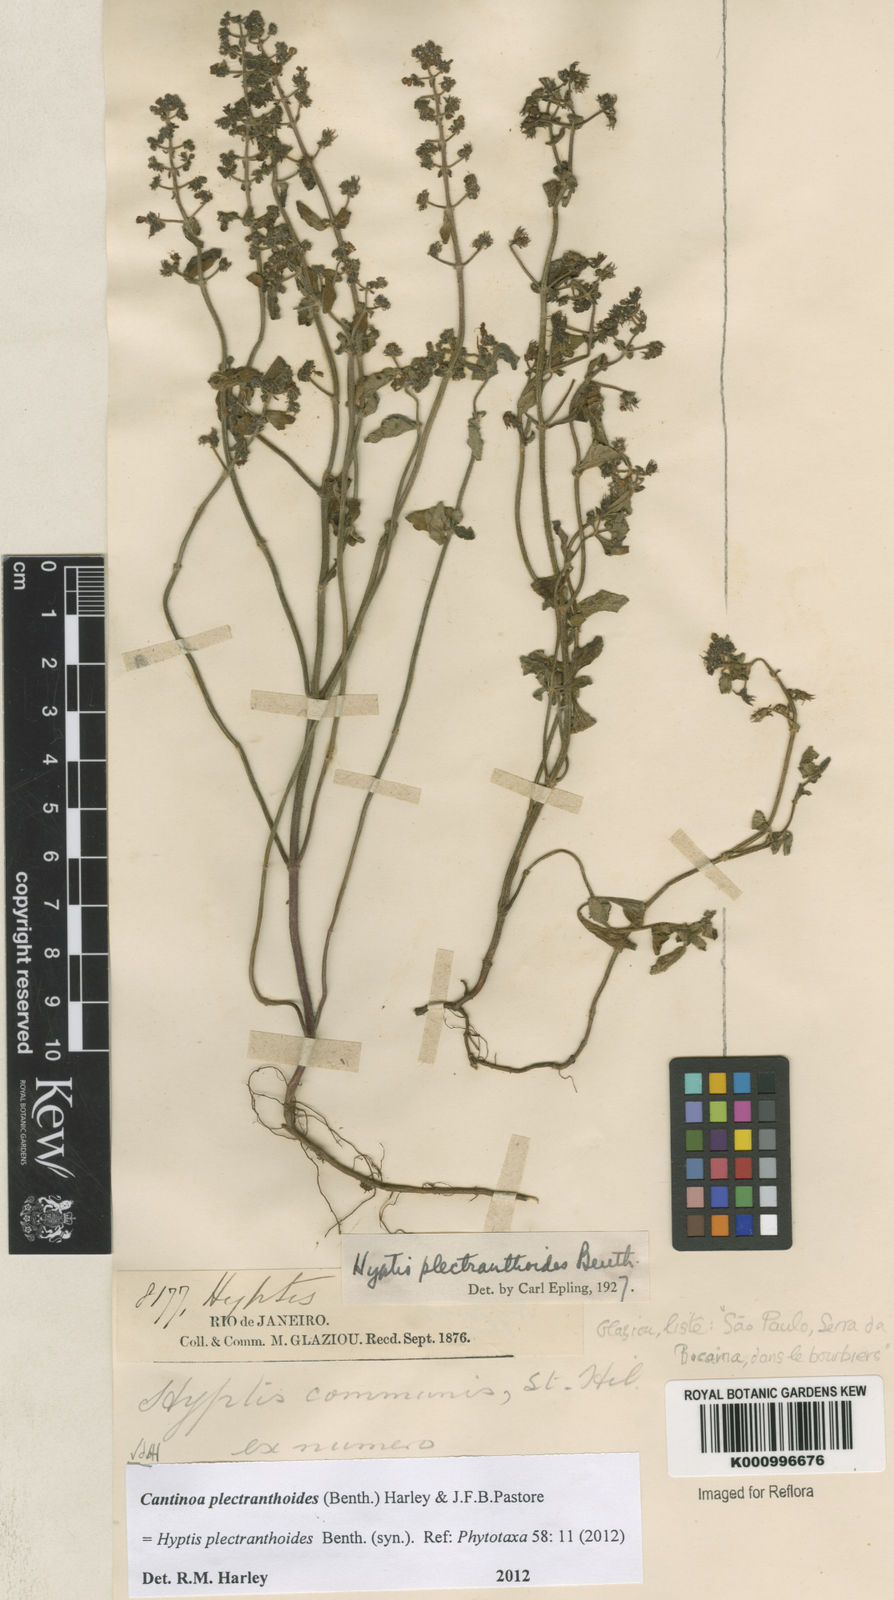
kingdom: Plantae
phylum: Tracheophyta
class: Magnoliopsida
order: Lamiales
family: Lamiaceae
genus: Cantinoa
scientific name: Cantinoa plectranthoides
